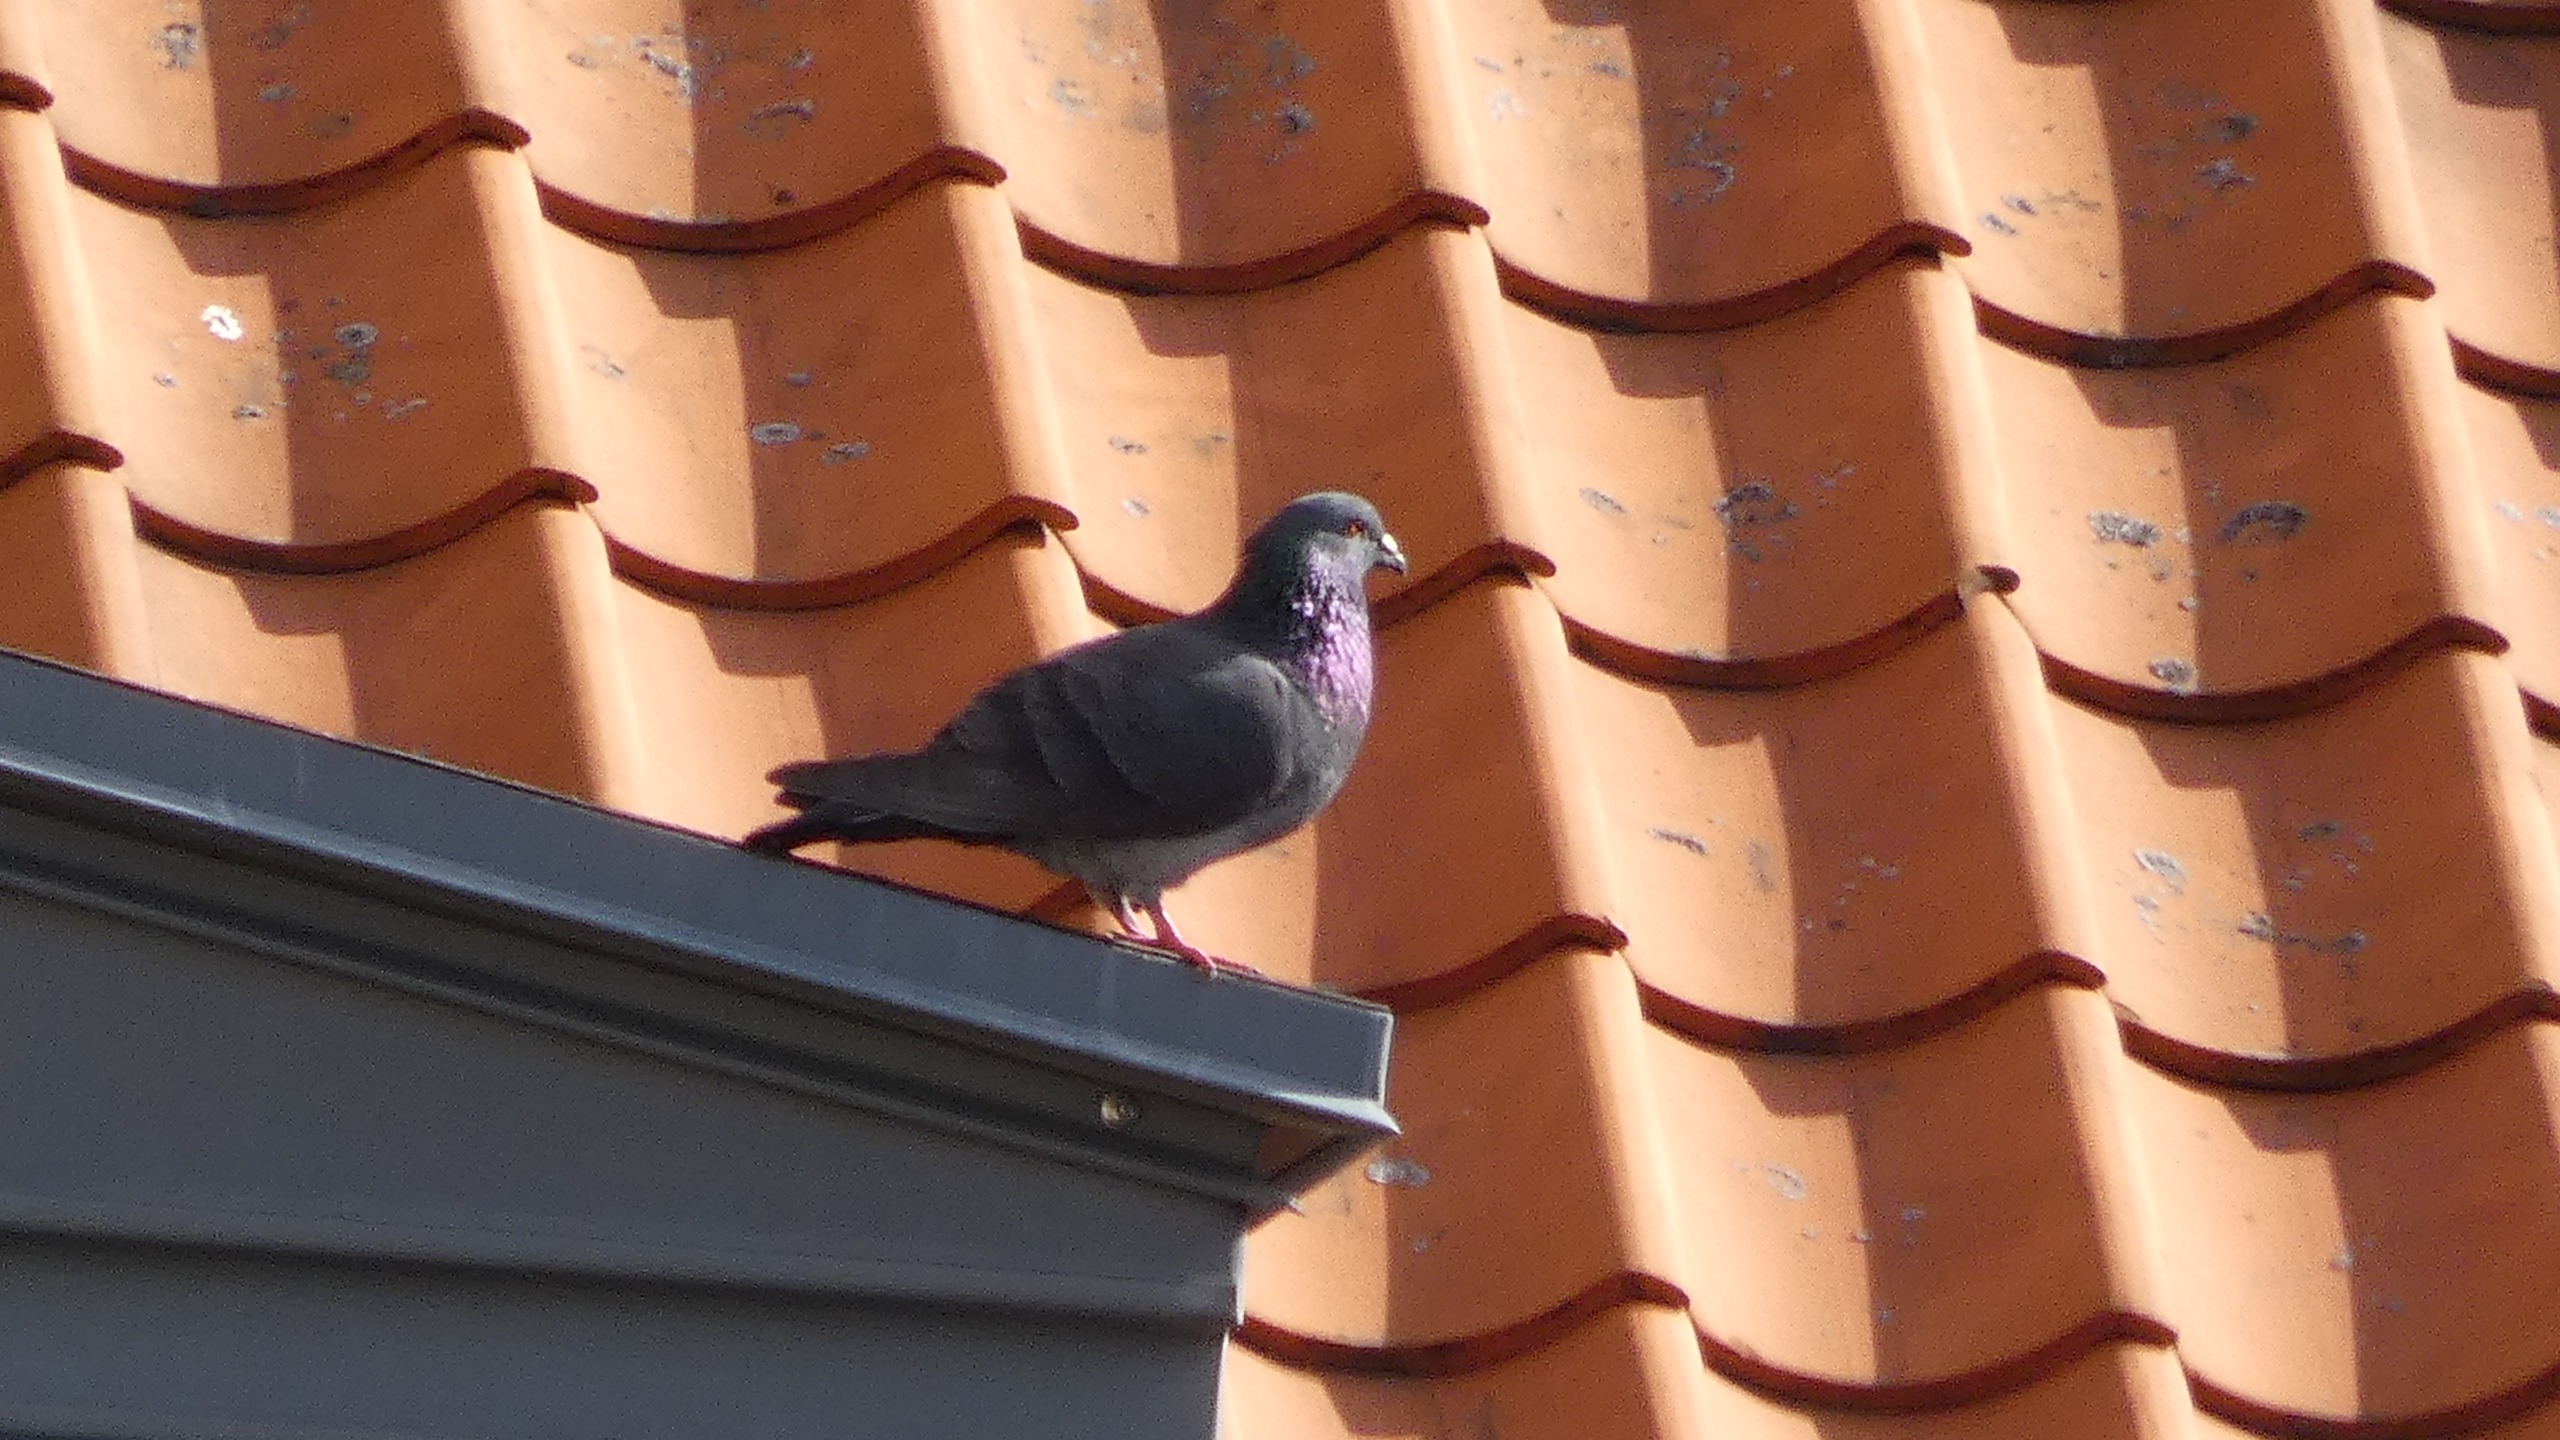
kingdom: Animalia
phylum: Chordata
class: Aves
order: Columbiformes
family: Columbidae
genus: Columba
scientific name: Columba livia
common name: Klippedue
